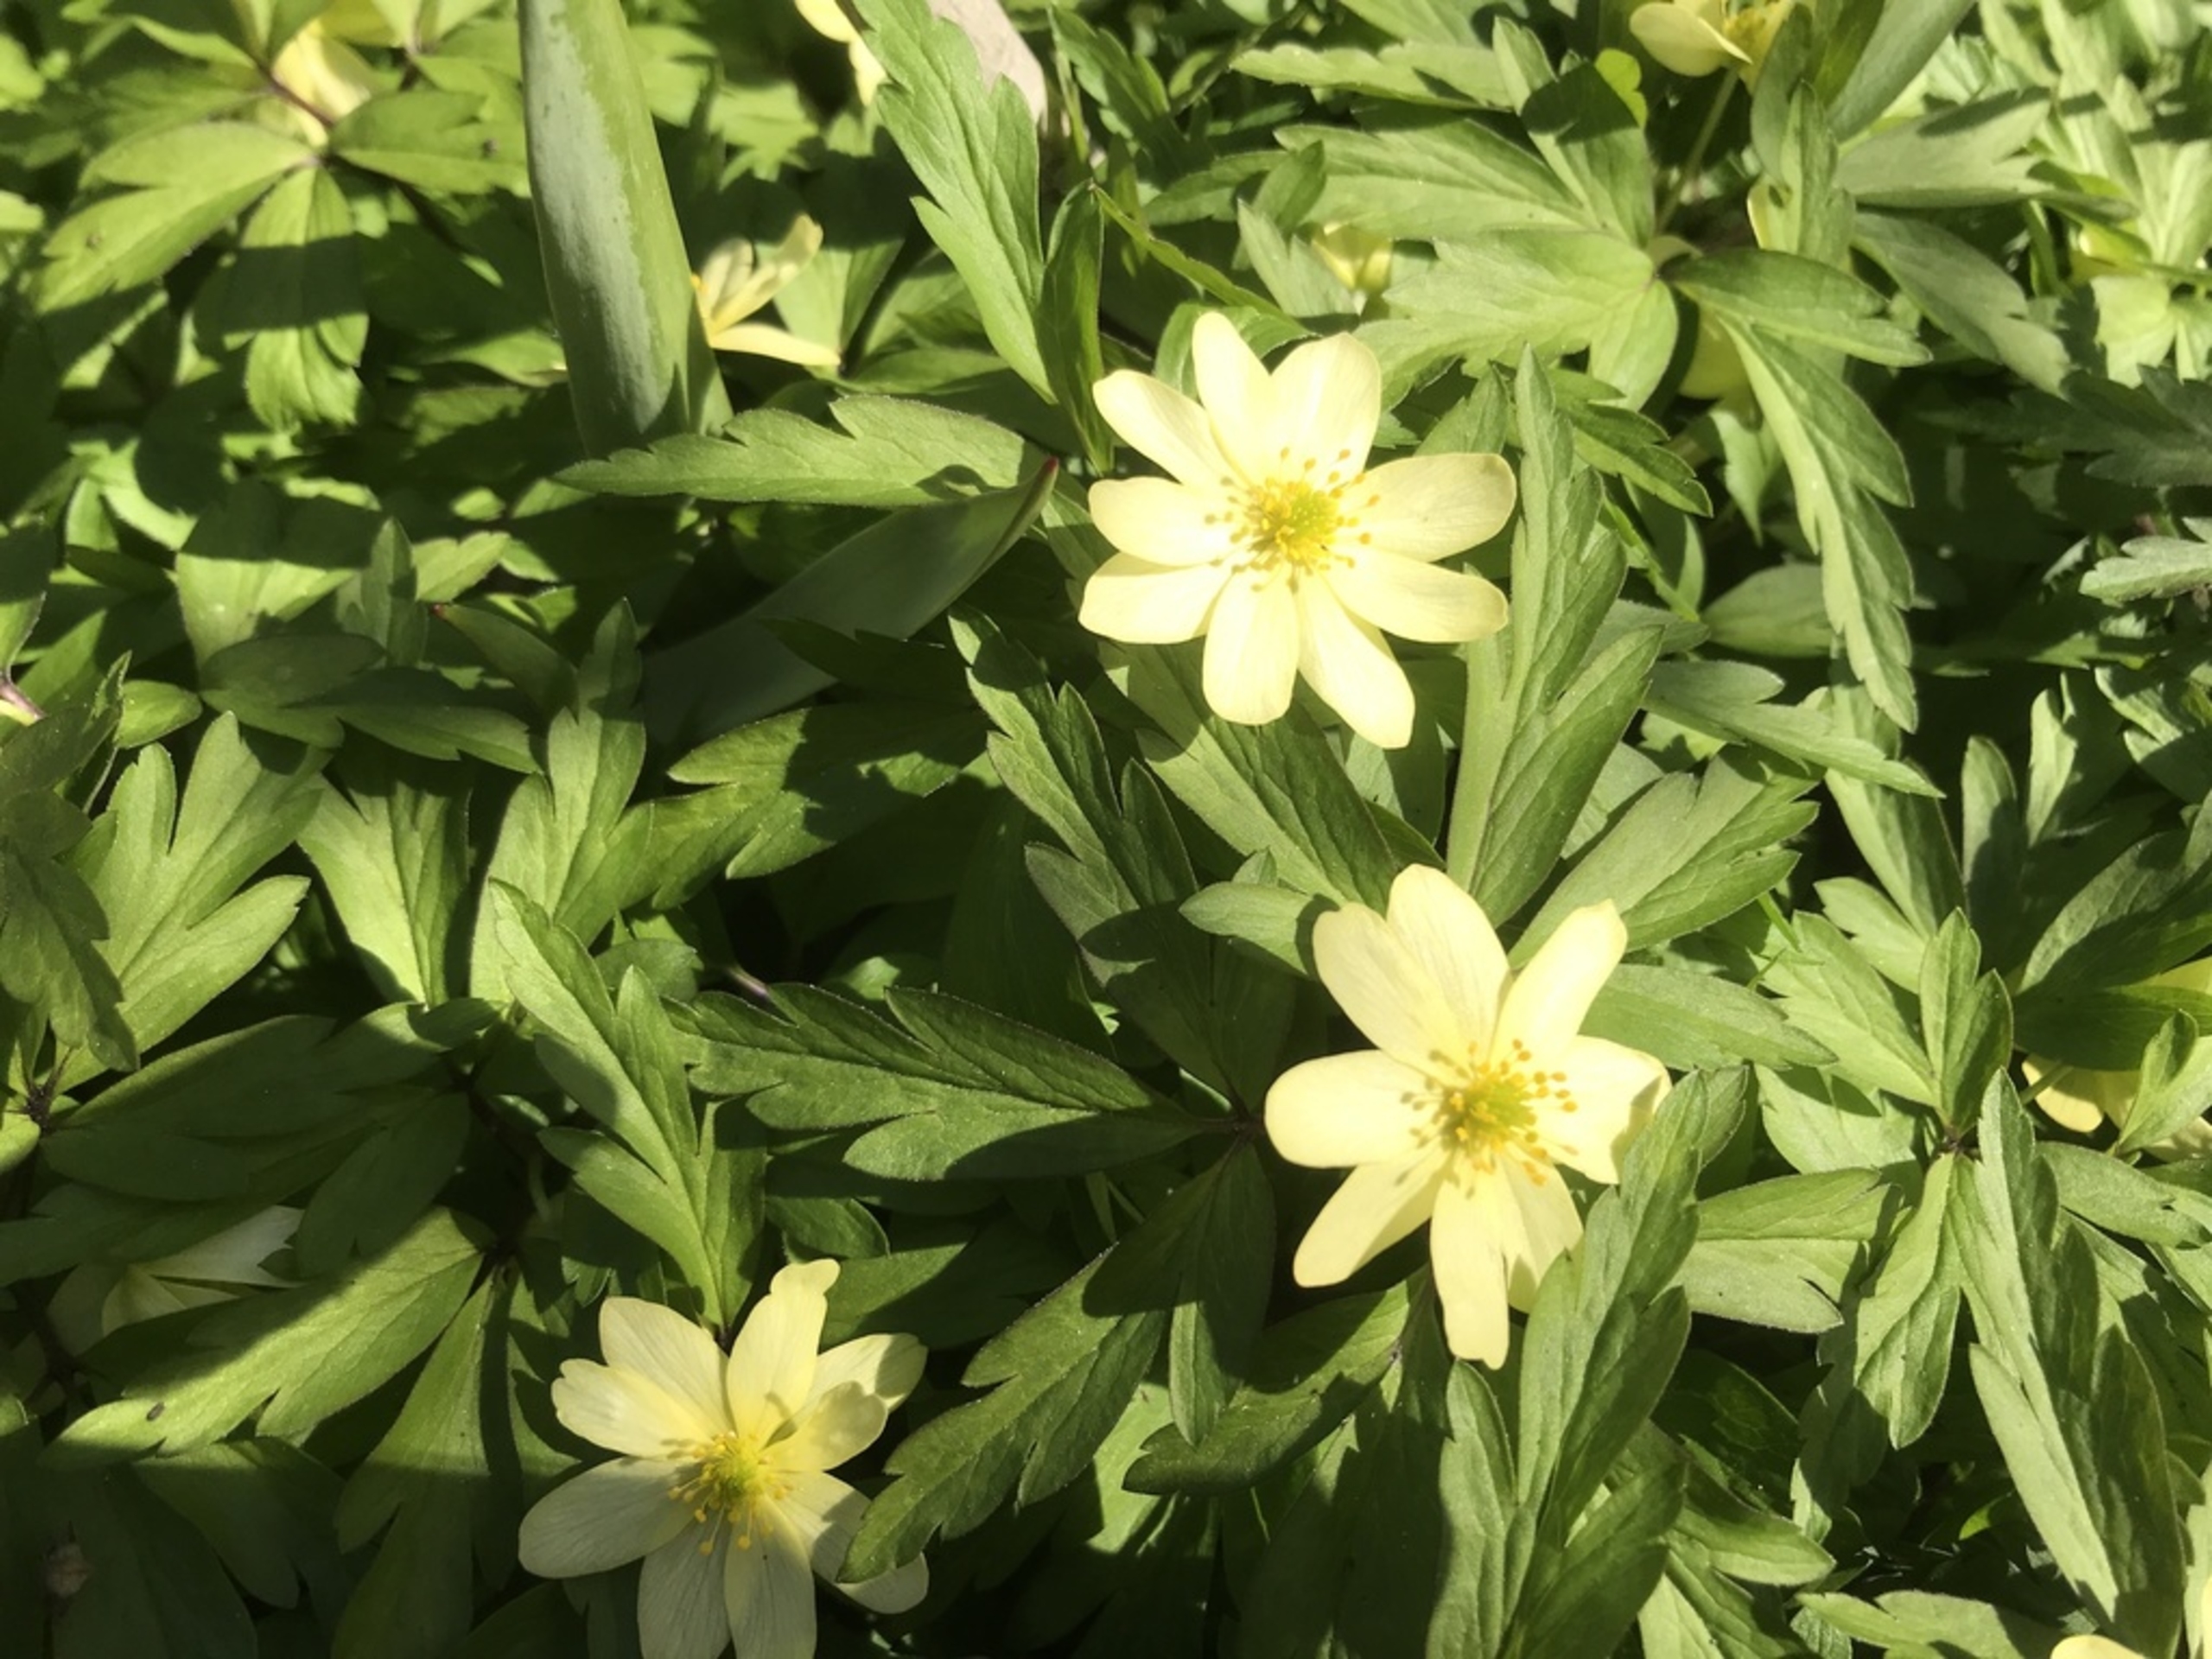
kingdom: Plantae
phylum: Tracheophyta
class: Magnoliopsida
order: Ranunculales
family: Ranunculaceae
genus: Anemone
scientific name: Anemone
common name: Svovlgul anemone
